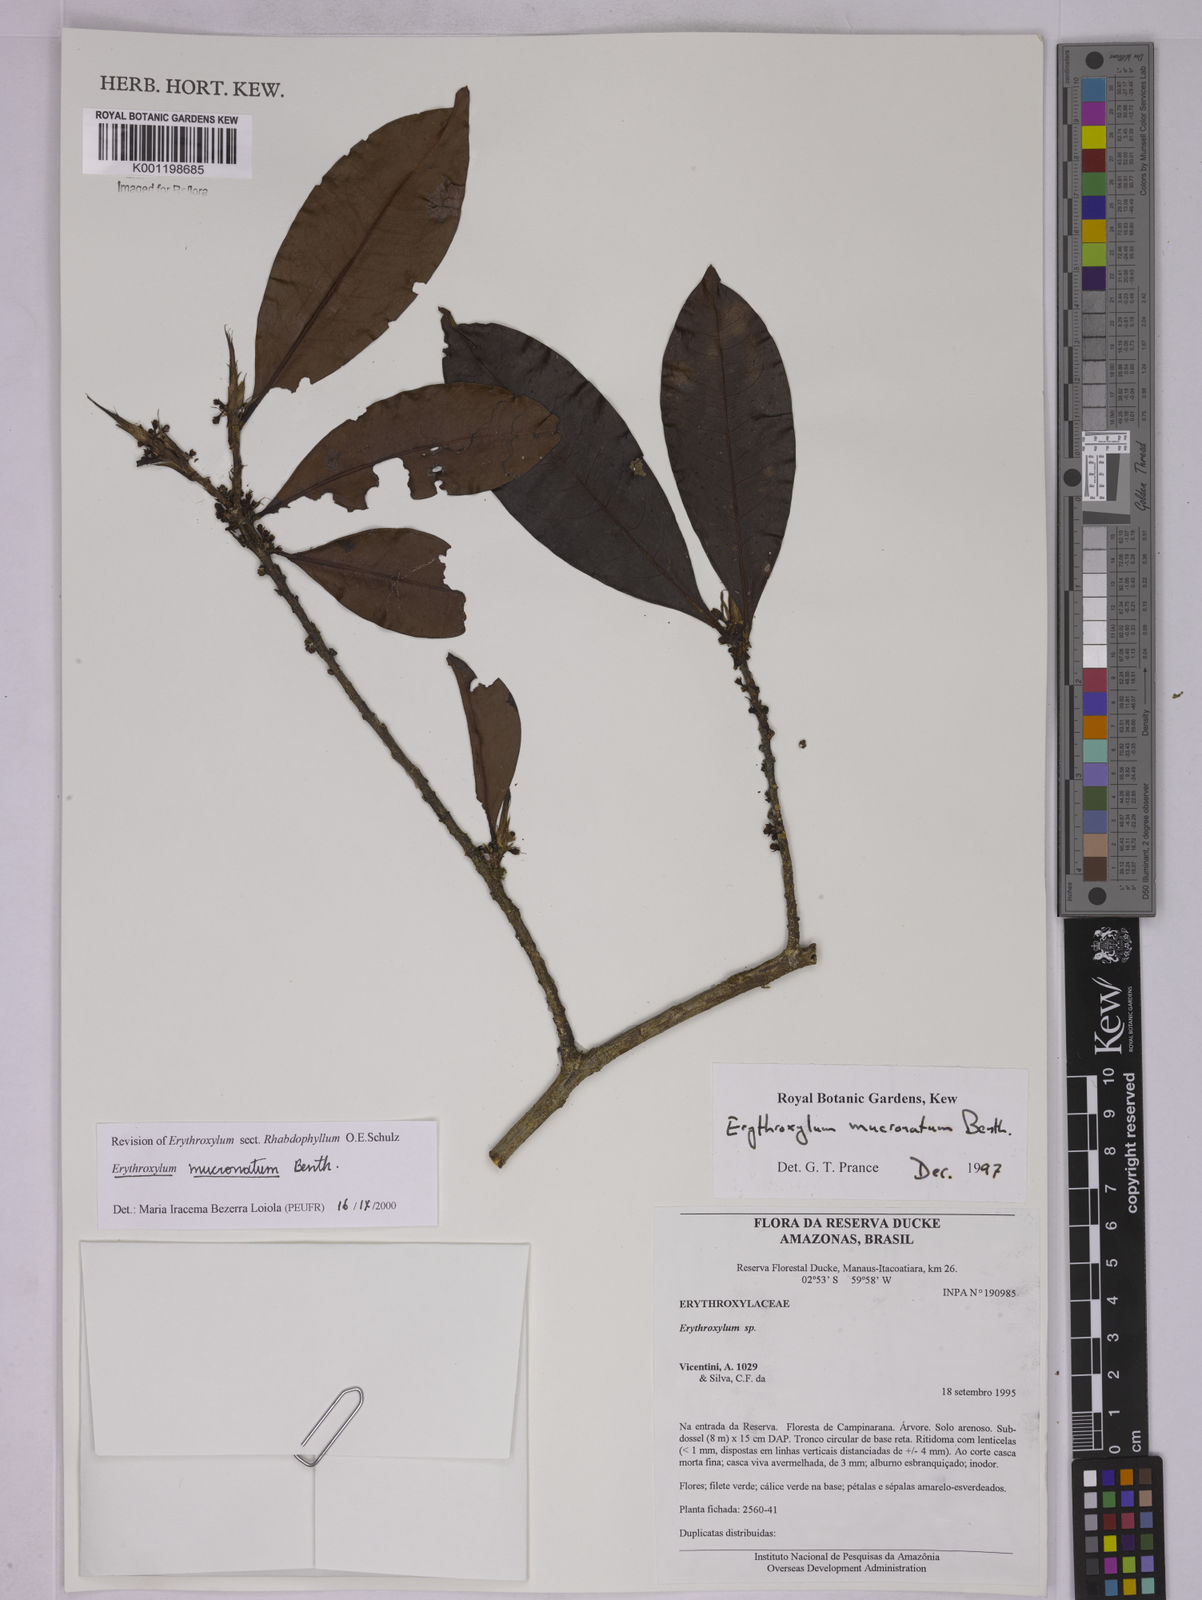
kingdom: Plantae
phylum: Tracheophyta
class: Magnoliopsida
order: Malpighiales
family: Erythroxylaceae
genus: Erythroxylum
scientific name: Erythroxylum mucronatum
